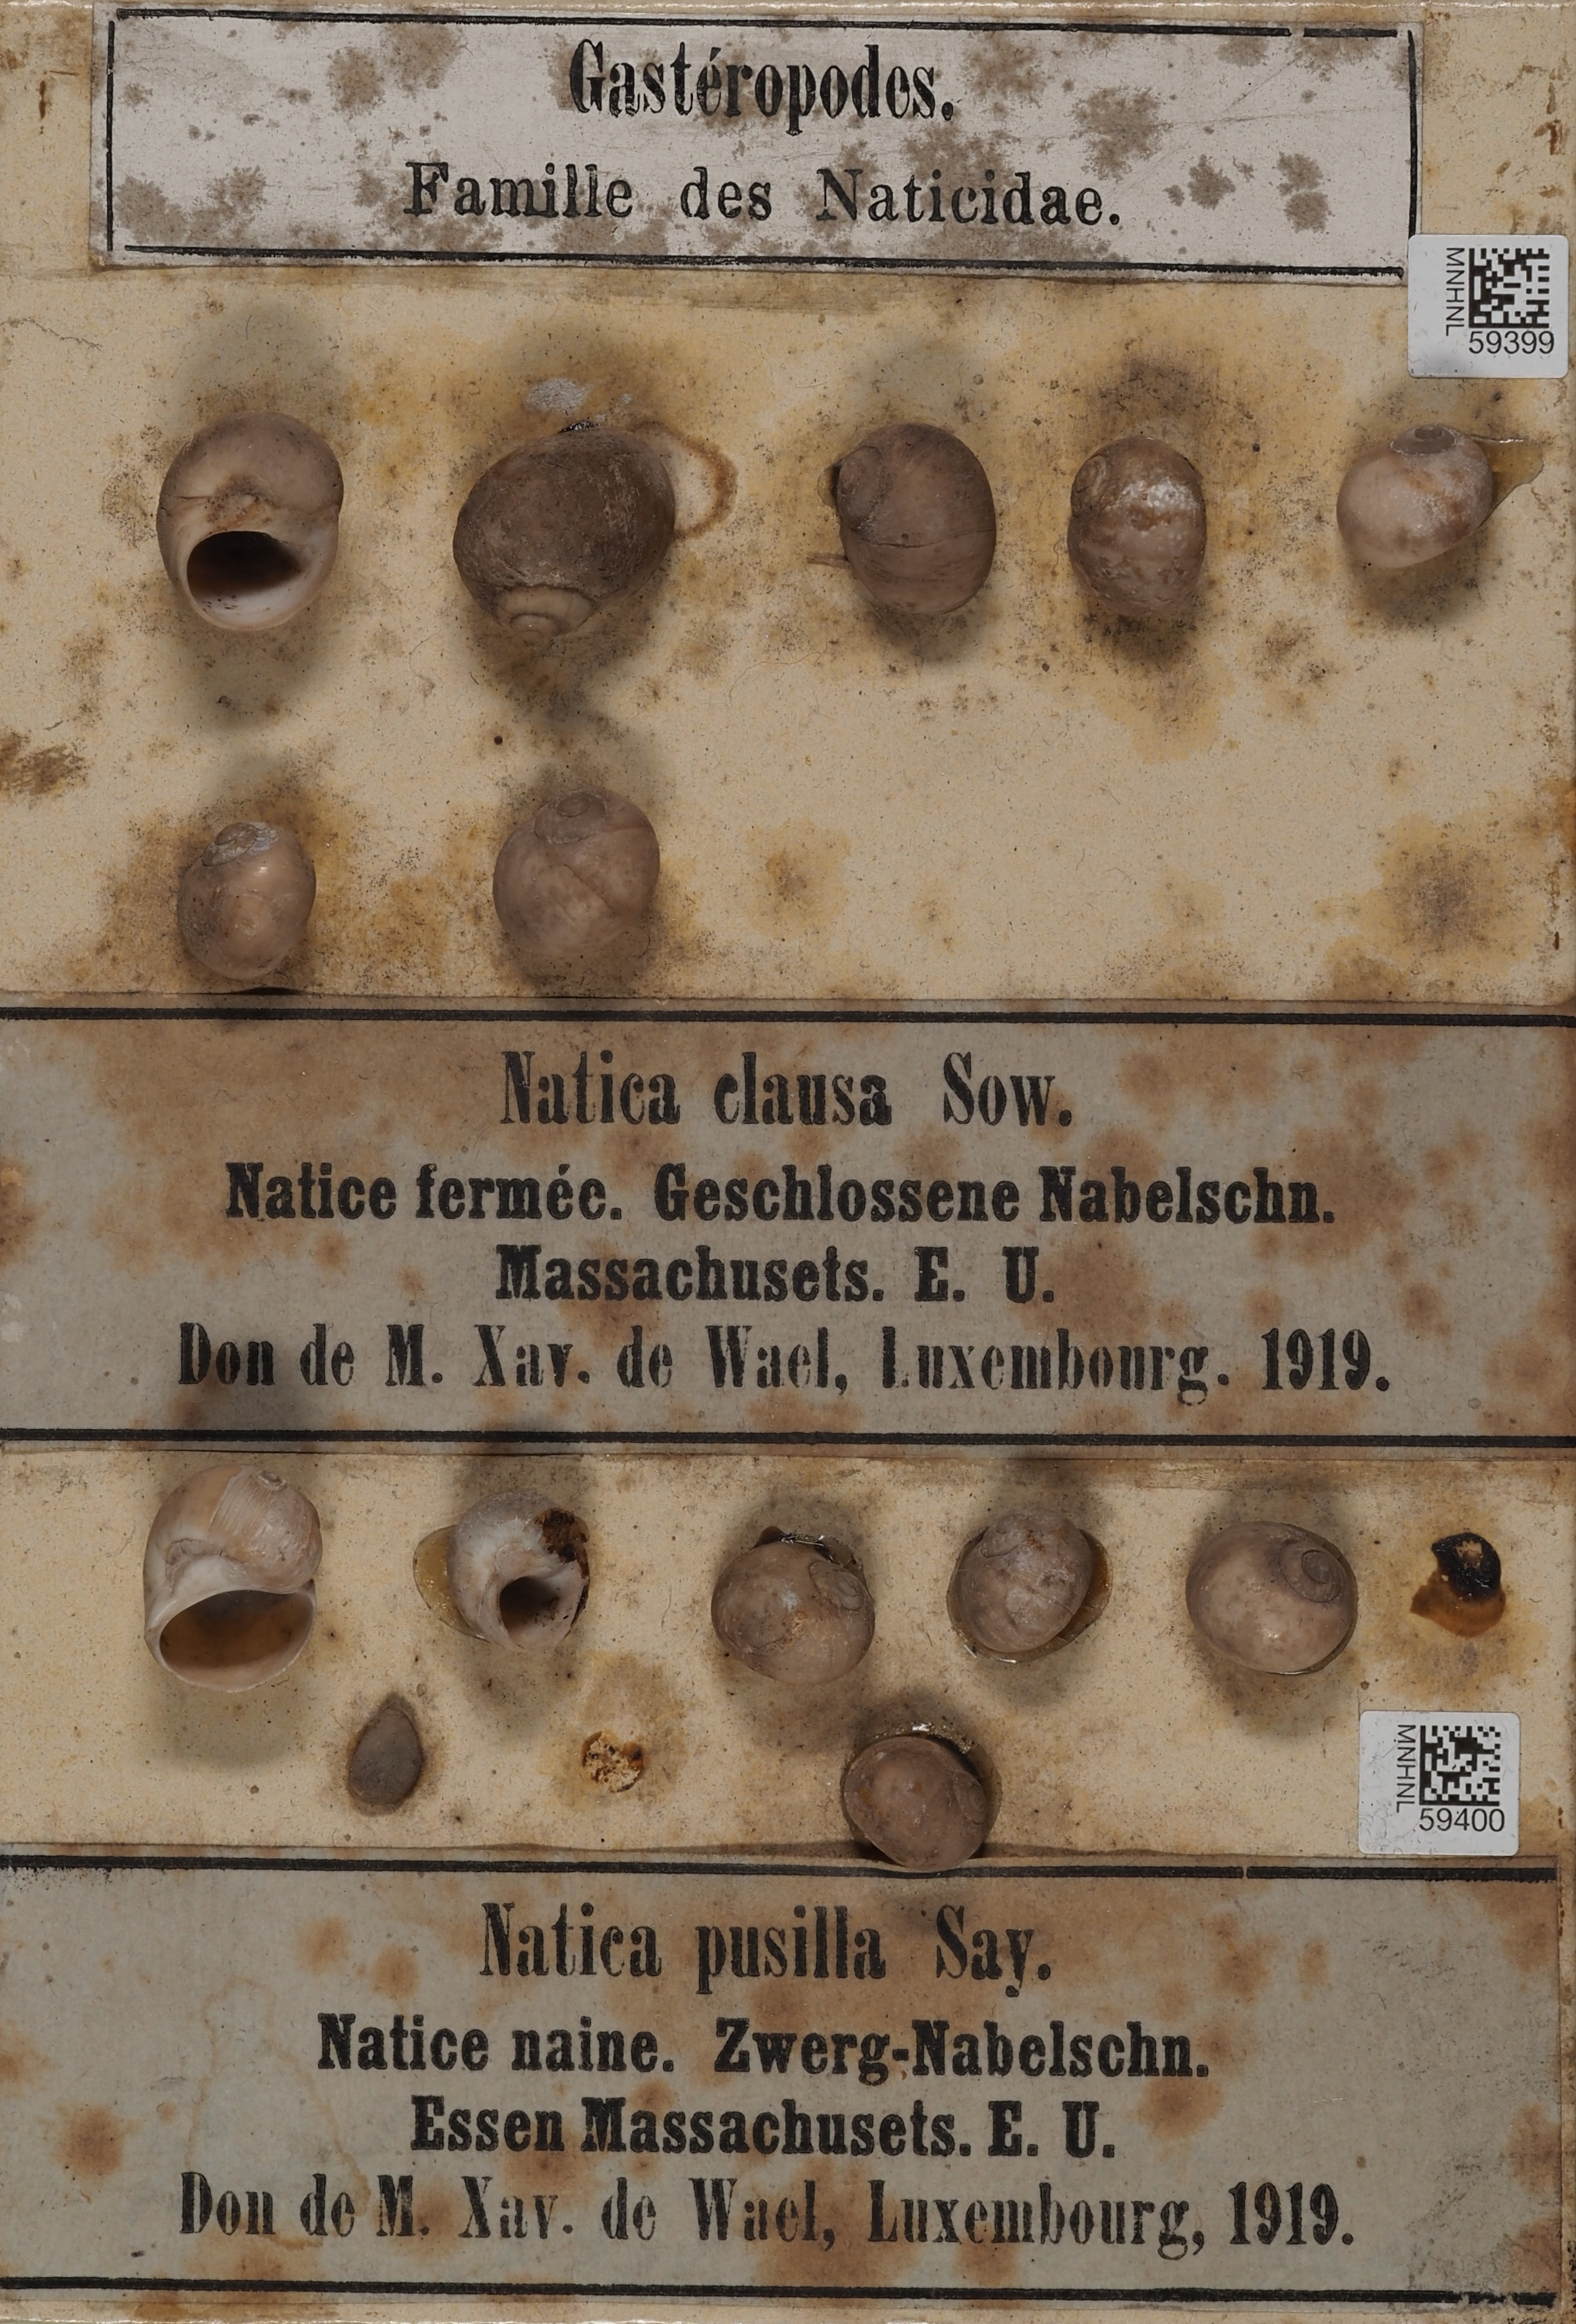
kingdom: Animalia
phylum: Mollusca
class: Gastropoda
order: Littorinimorpha
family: Naticidae
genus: Cryptonatica
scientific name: Cryptonatica affinis
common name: Arctic moon snail
